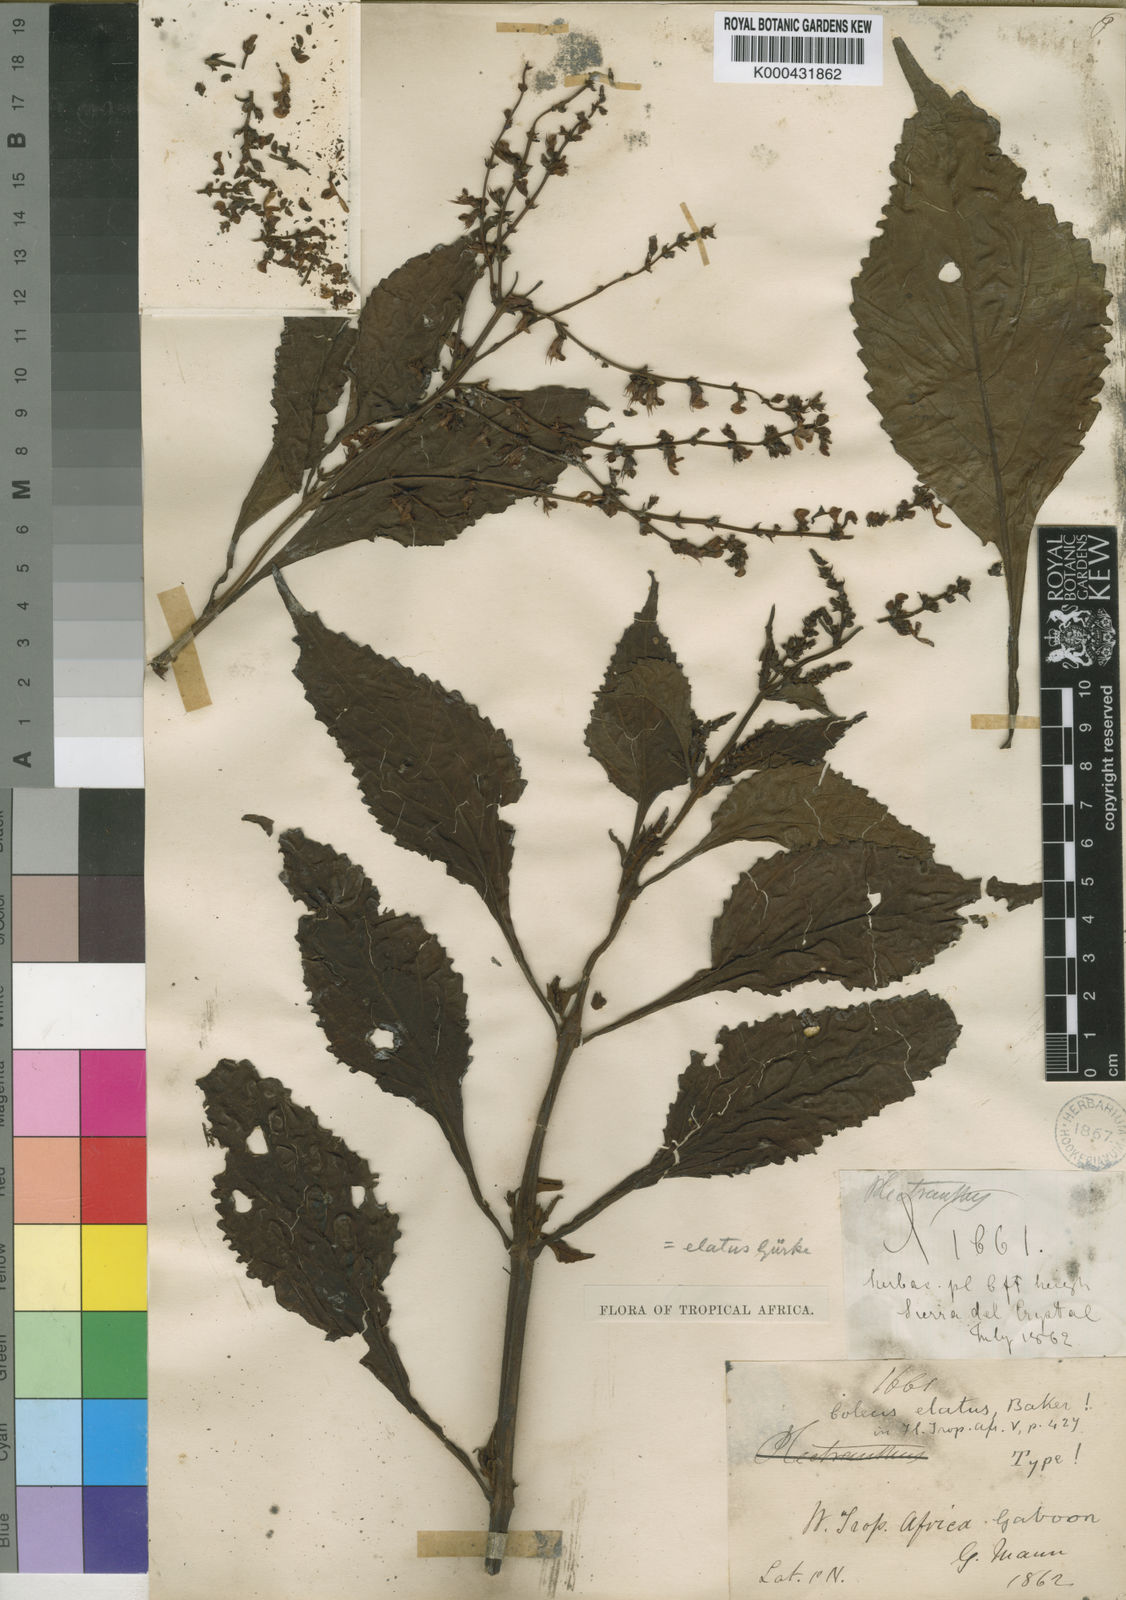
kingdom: Plantae
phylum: Tracheophyta
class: Magnoliopsida
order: Lamiales
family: Lamiaceae
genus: Plectranthus
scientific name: Plectranthus
